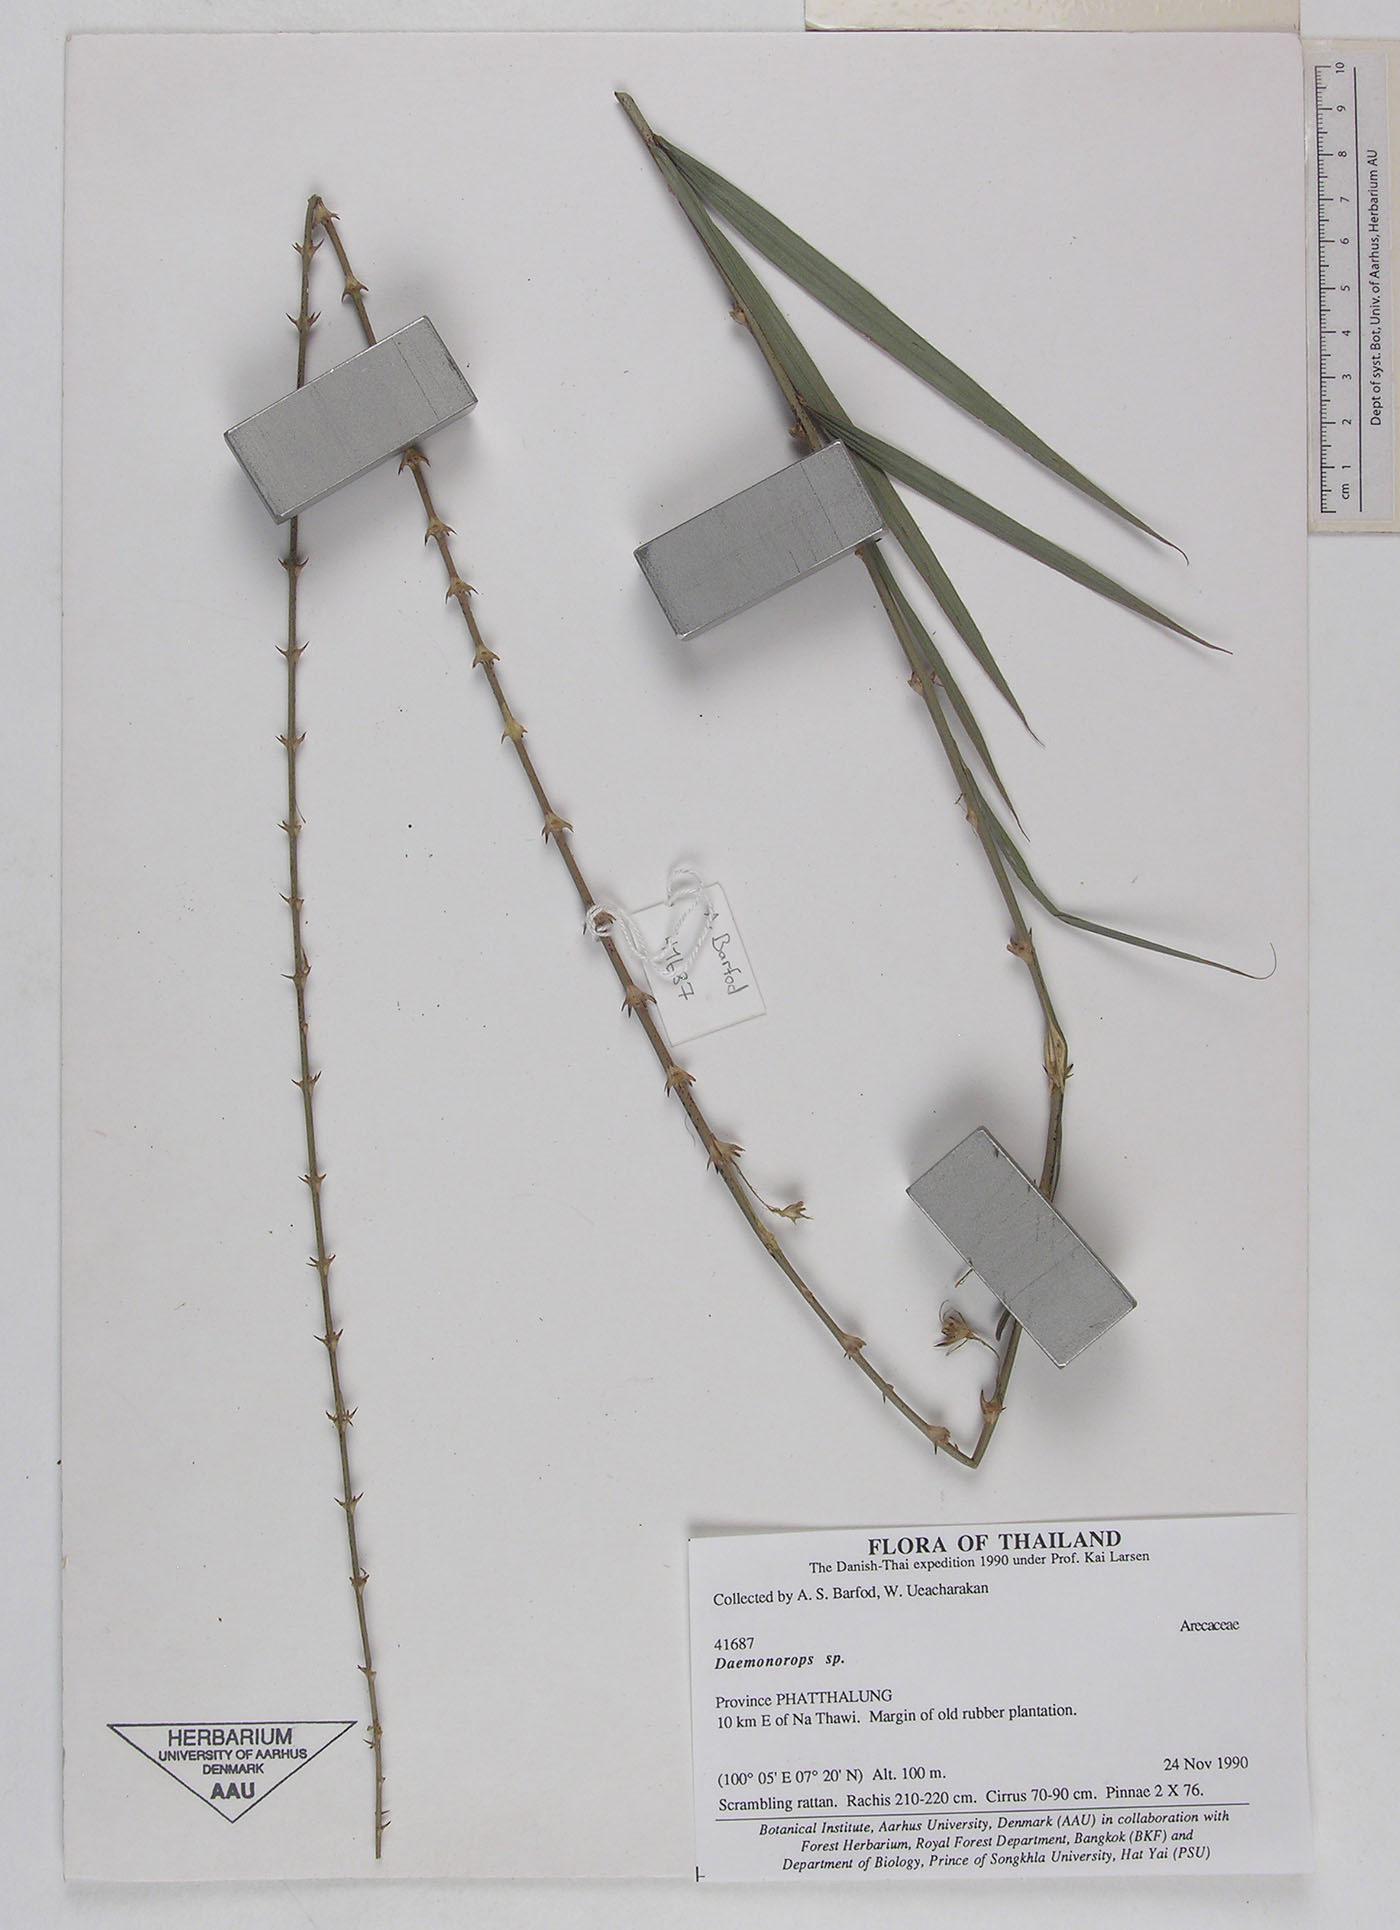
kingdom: Plantae
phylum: Tracheophyta
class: Liliopsida
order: Arecales
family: Arecaceae
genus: Calamus
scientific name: Calamus melanochaetes
